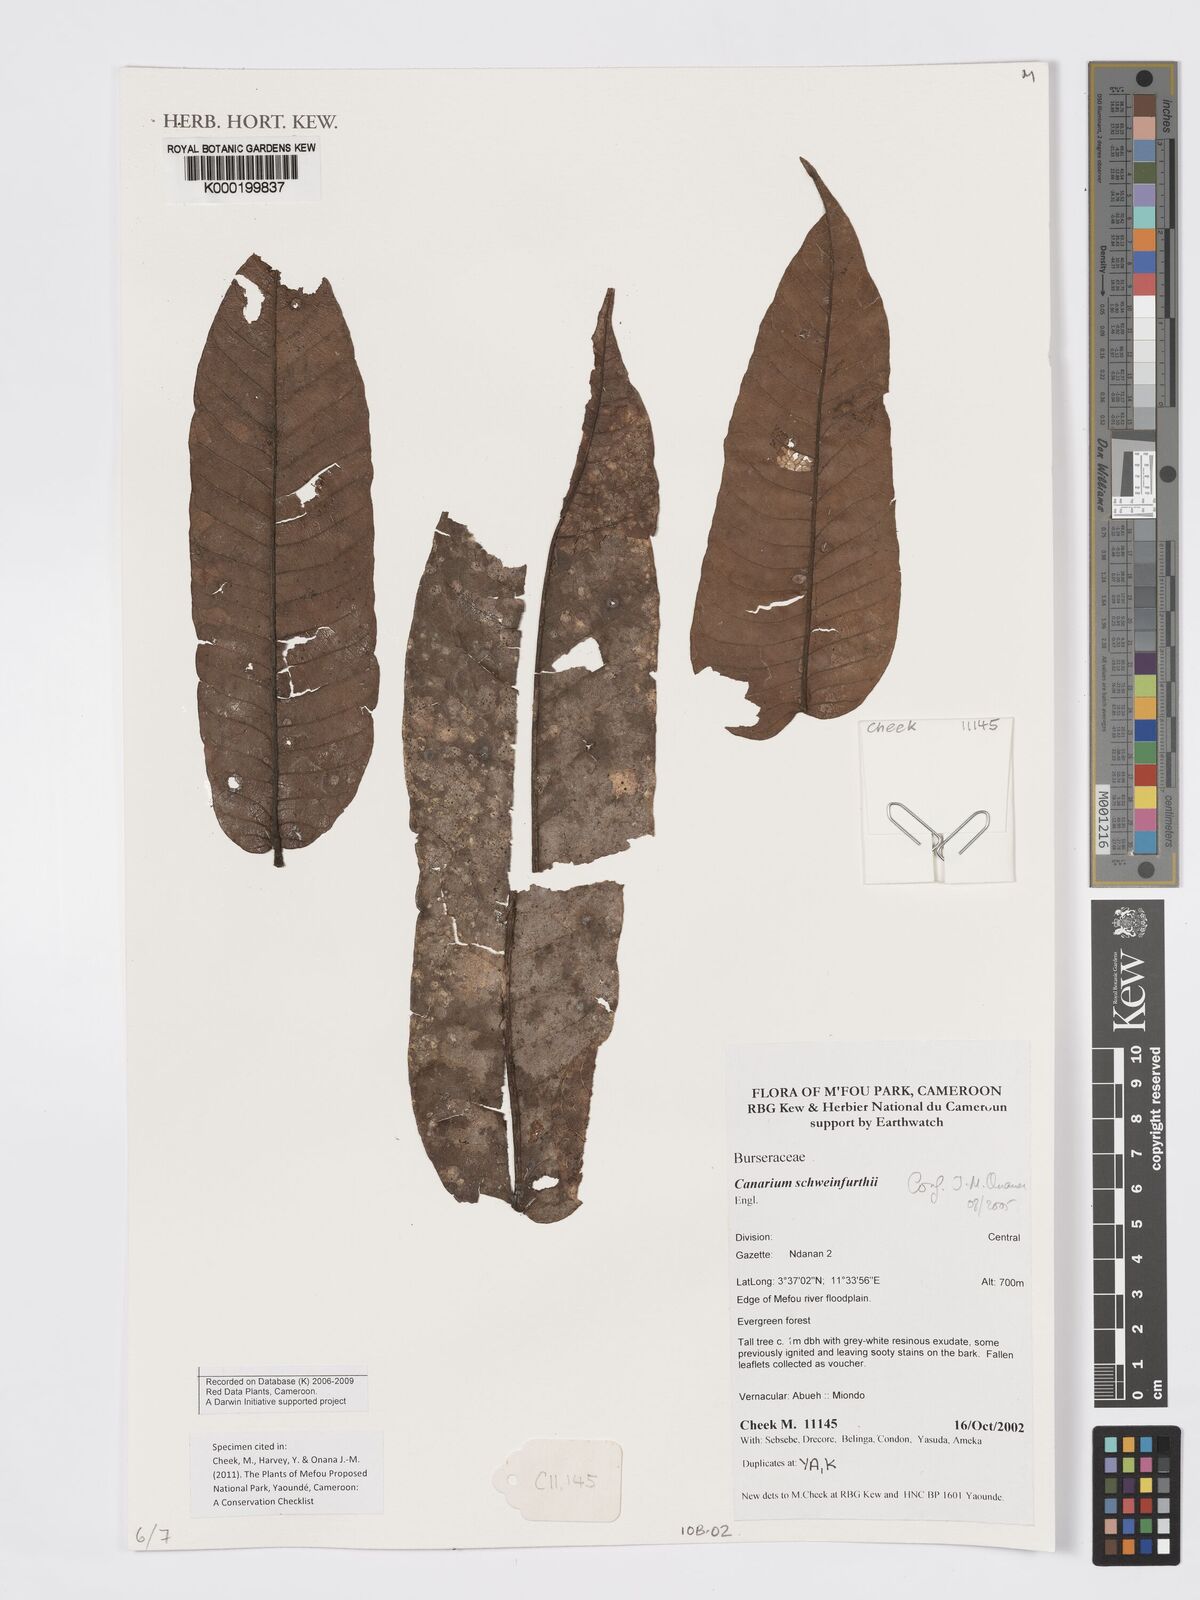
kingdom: Plantae
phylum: Tracheophyta
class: Magnoliopsida
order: Sapindales
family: Burseraceae
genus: Canarium
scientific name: Canarium schweinfurthii
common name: African elemi
